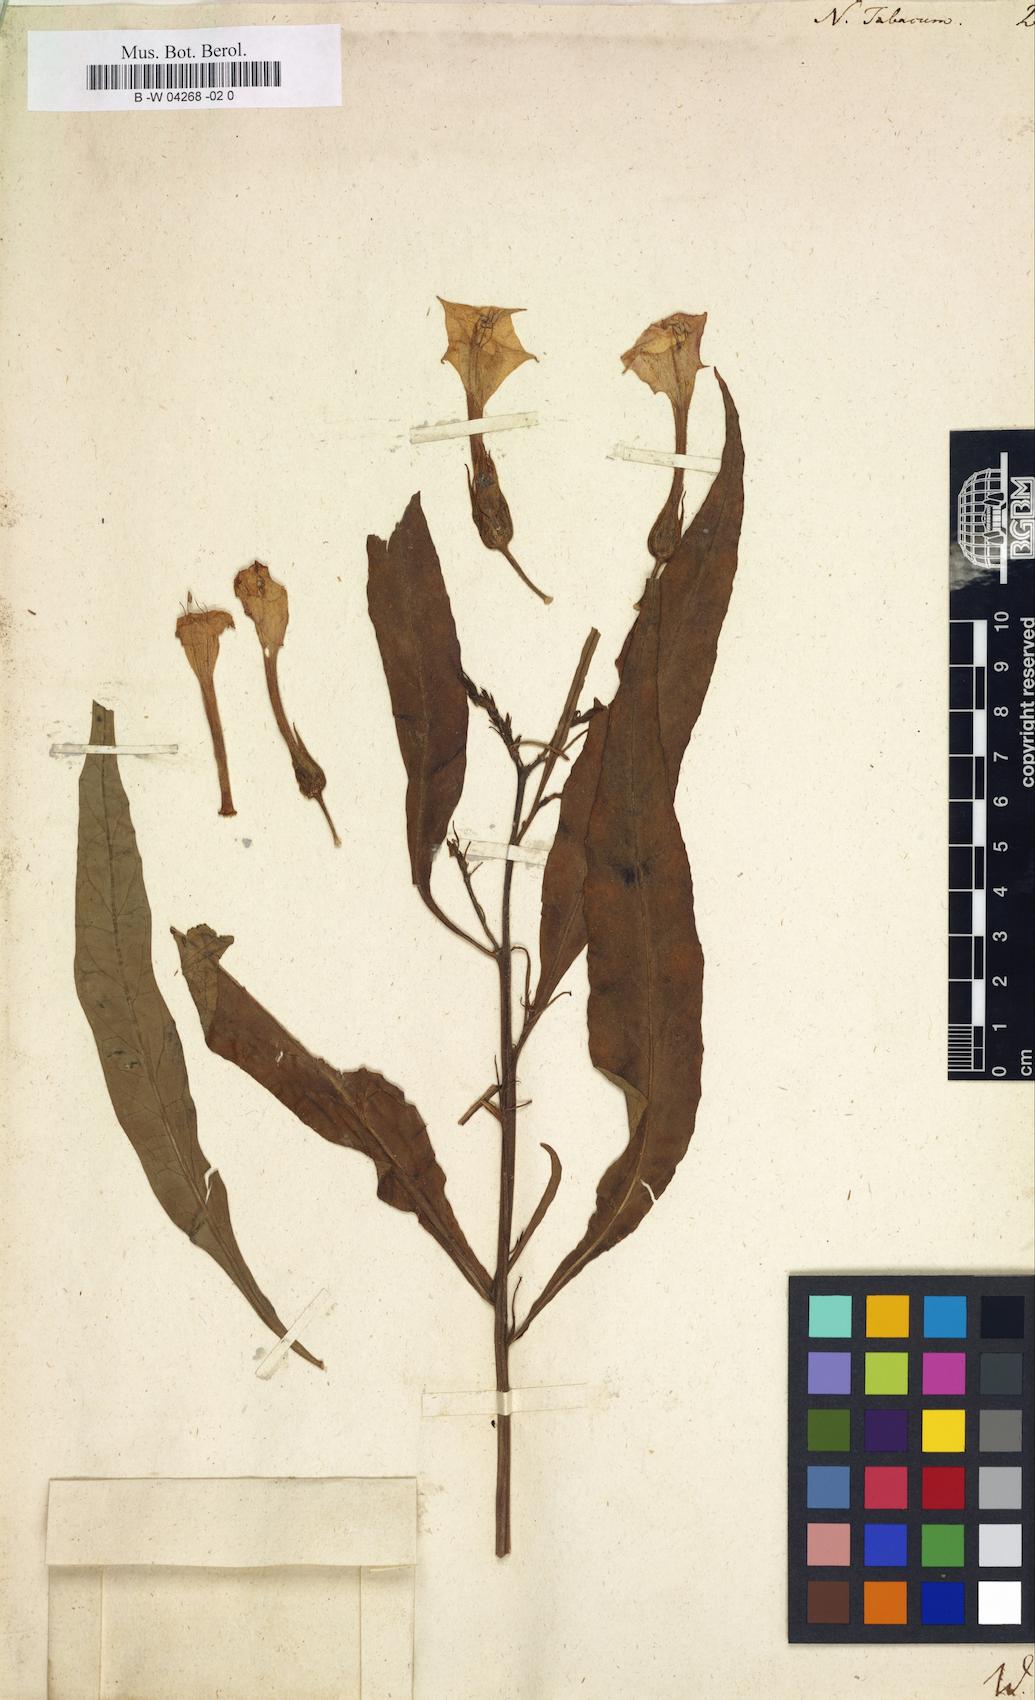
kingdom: Plantae
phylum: Tracheophyta
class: Magnoliopsida
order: Solanales
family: Solanaceae
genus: Nicotiana
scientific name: Nicotiana tabacum
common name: Tobacco
